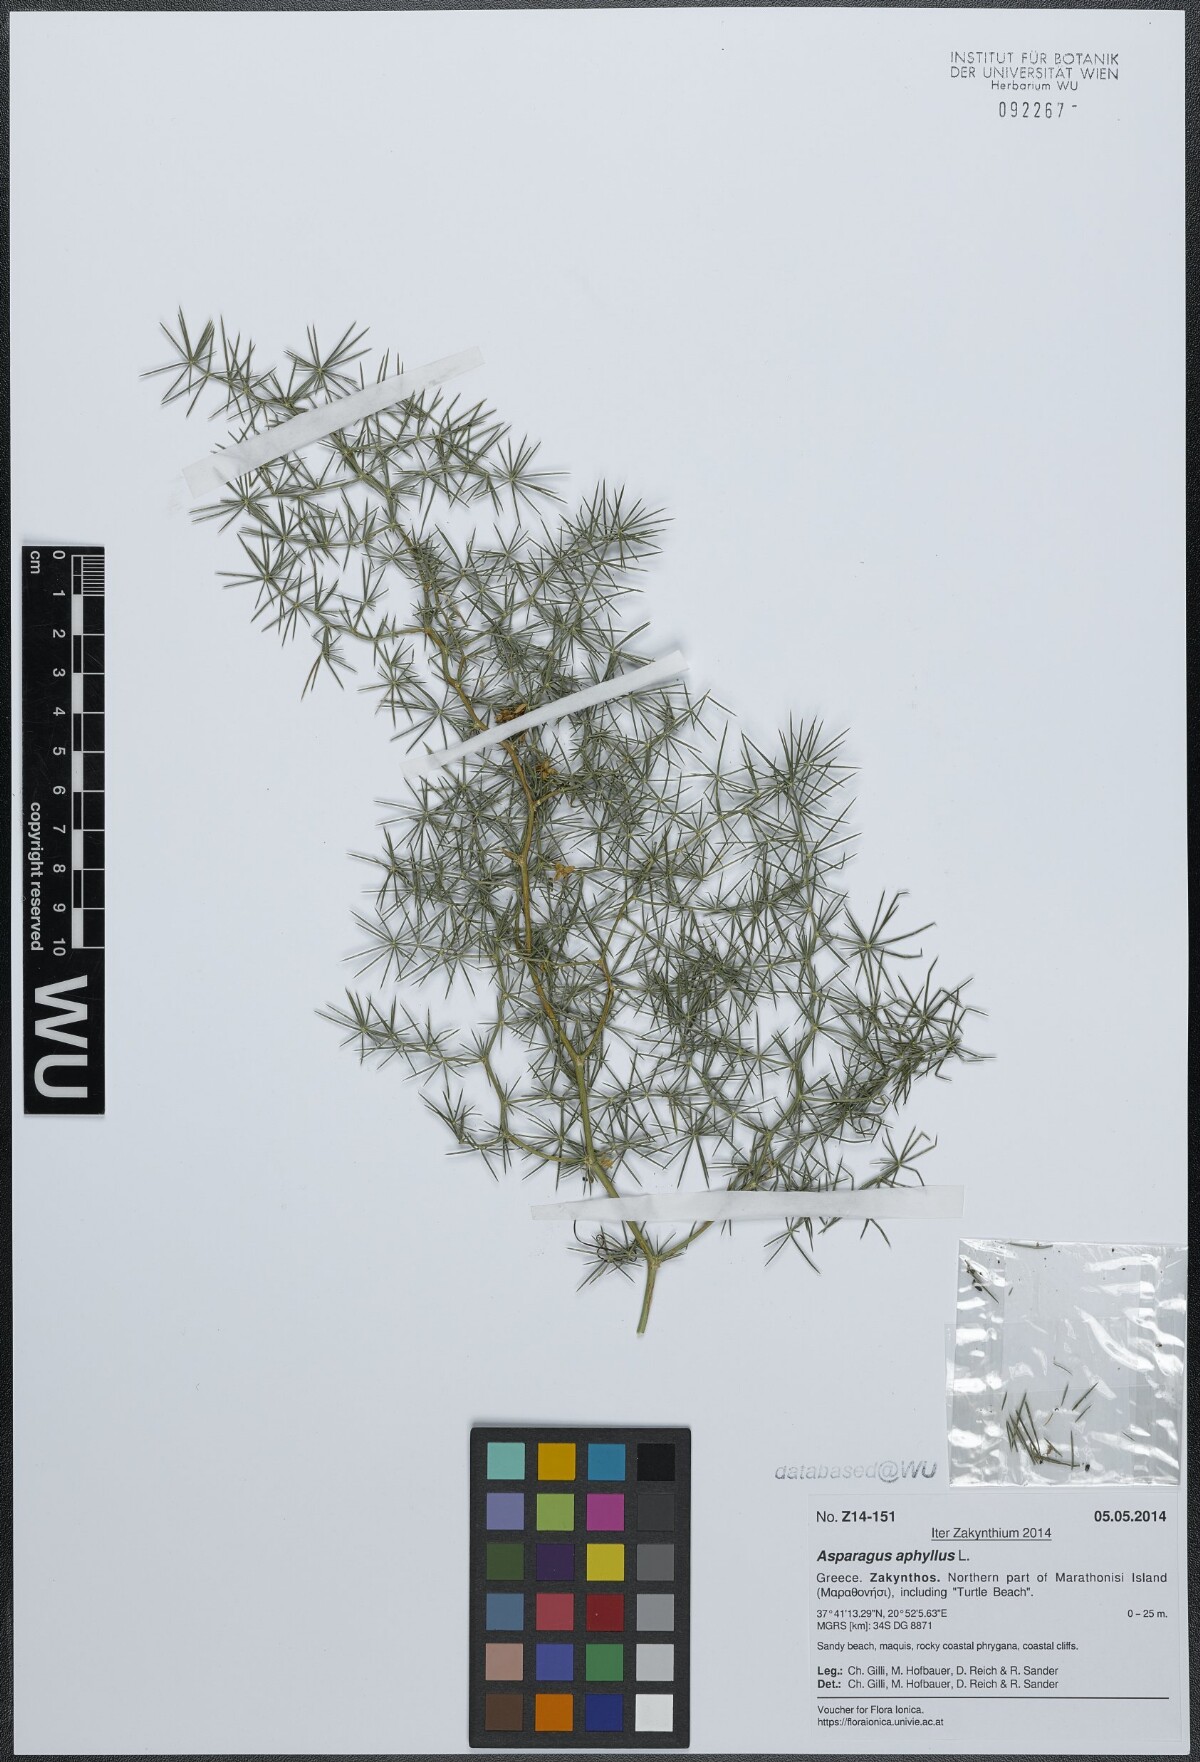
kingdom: Plantae
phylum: Tracheophyta
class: Liliopsida
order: Asparagales
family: Asparagaceae
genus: Asparagus
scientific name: Asparagus aphyllus
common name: Mediterranean asparagus
